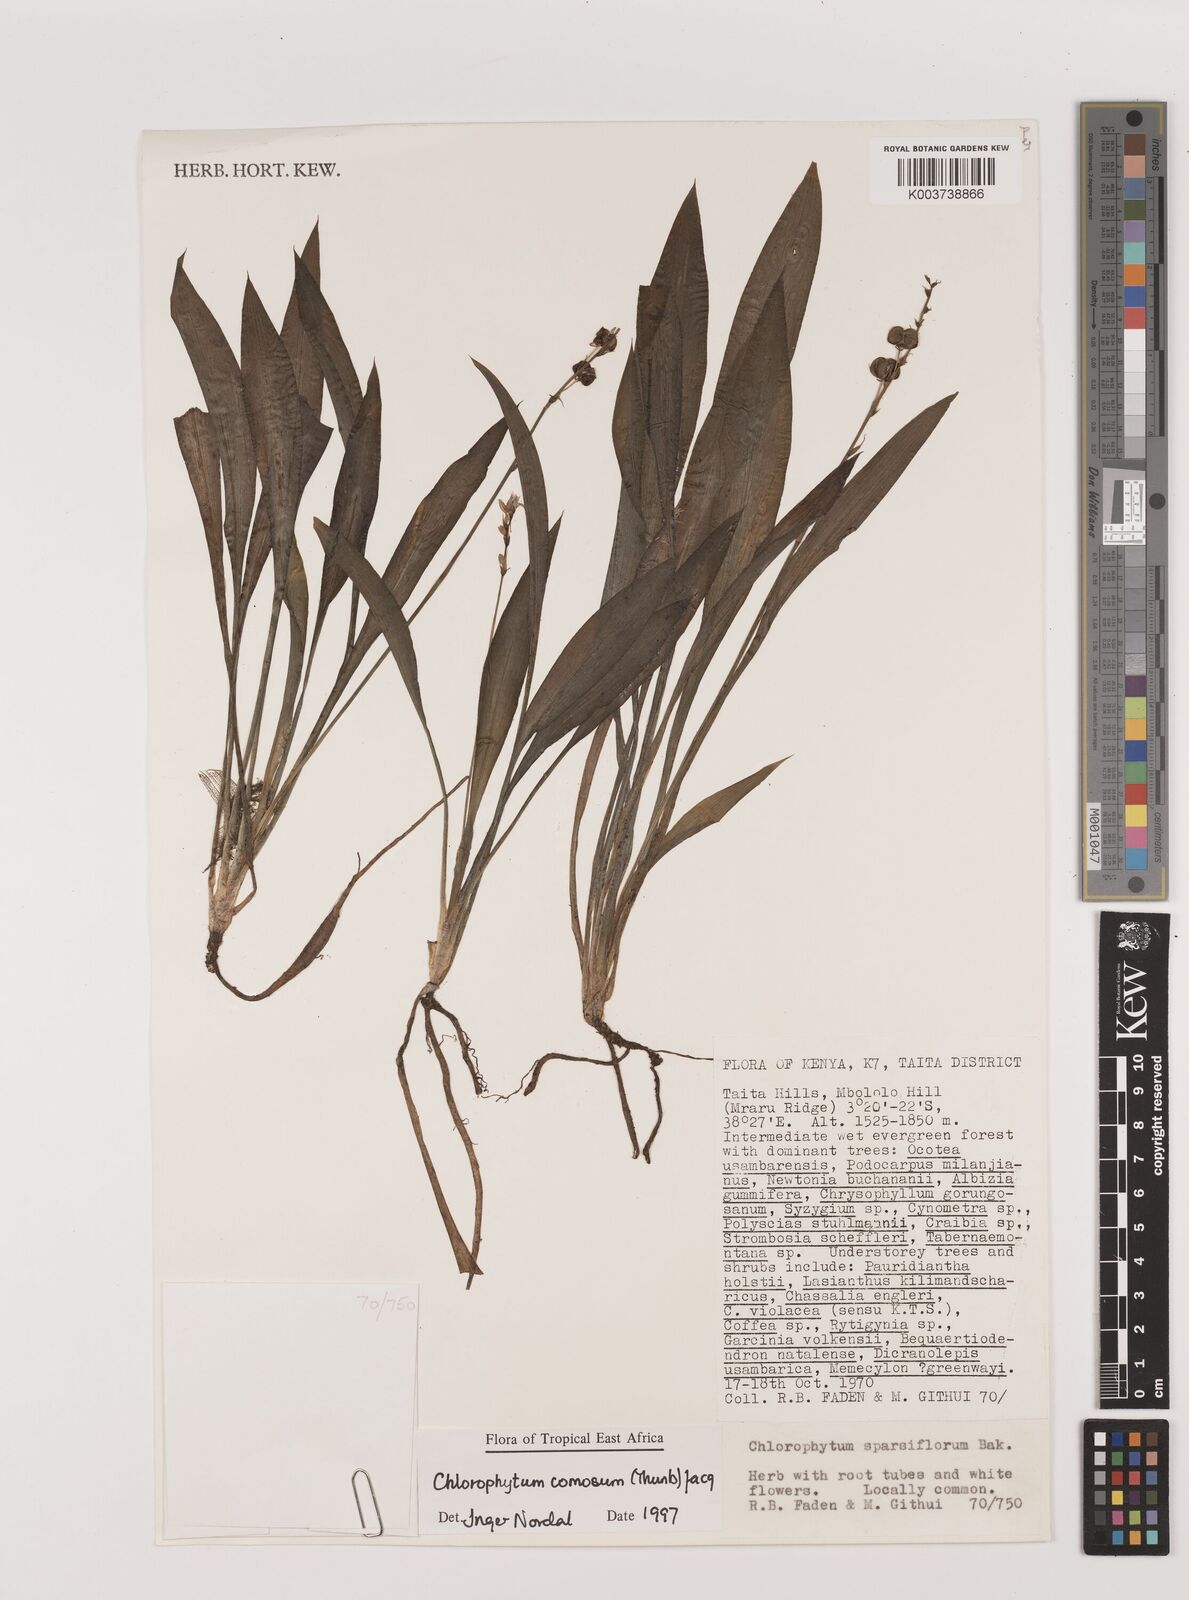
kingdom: Plantae
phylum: Tracheophyta
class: Liliopsida
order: Asparagales
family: Asparagaceae
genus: Chlorophytum
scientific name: Chlorophytum comosum
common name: Spider plant
